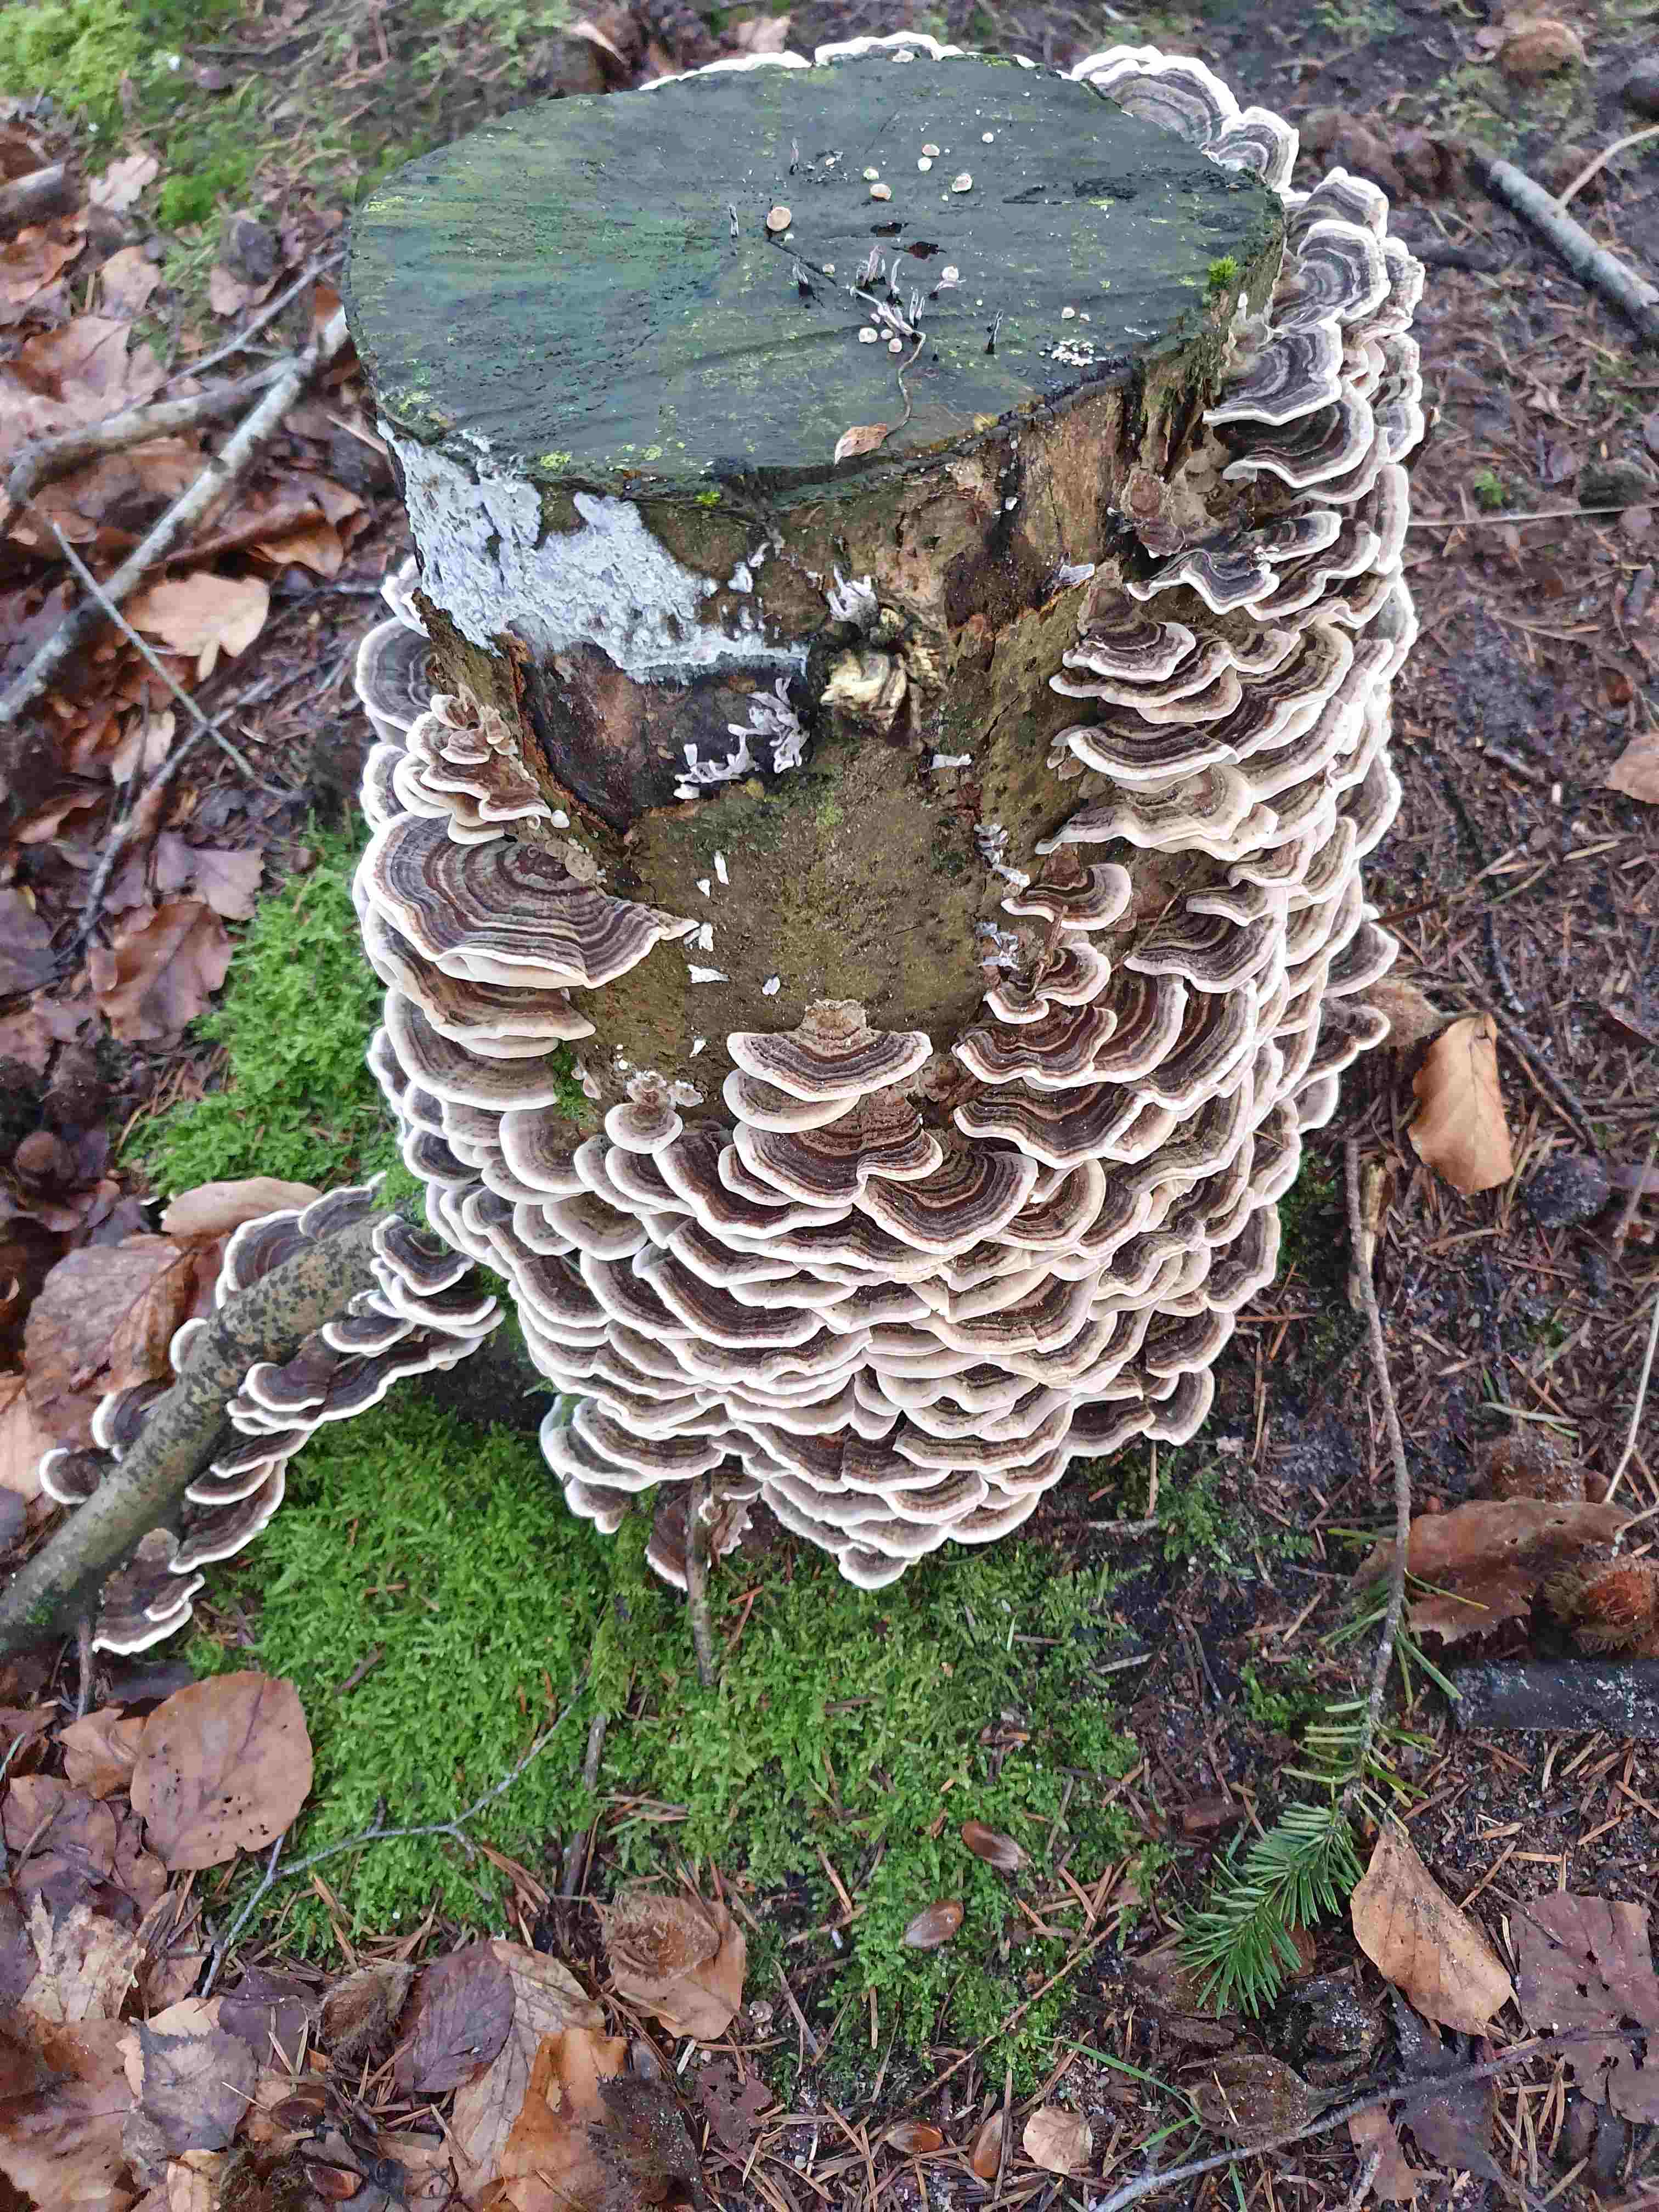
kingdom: Fungi
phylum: Basidiomycota
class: Agaricomycetes
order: Polyporales
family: Polyporaceae
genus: Trametes
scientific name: Trametes versicolor
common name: broget læderporesvamp
